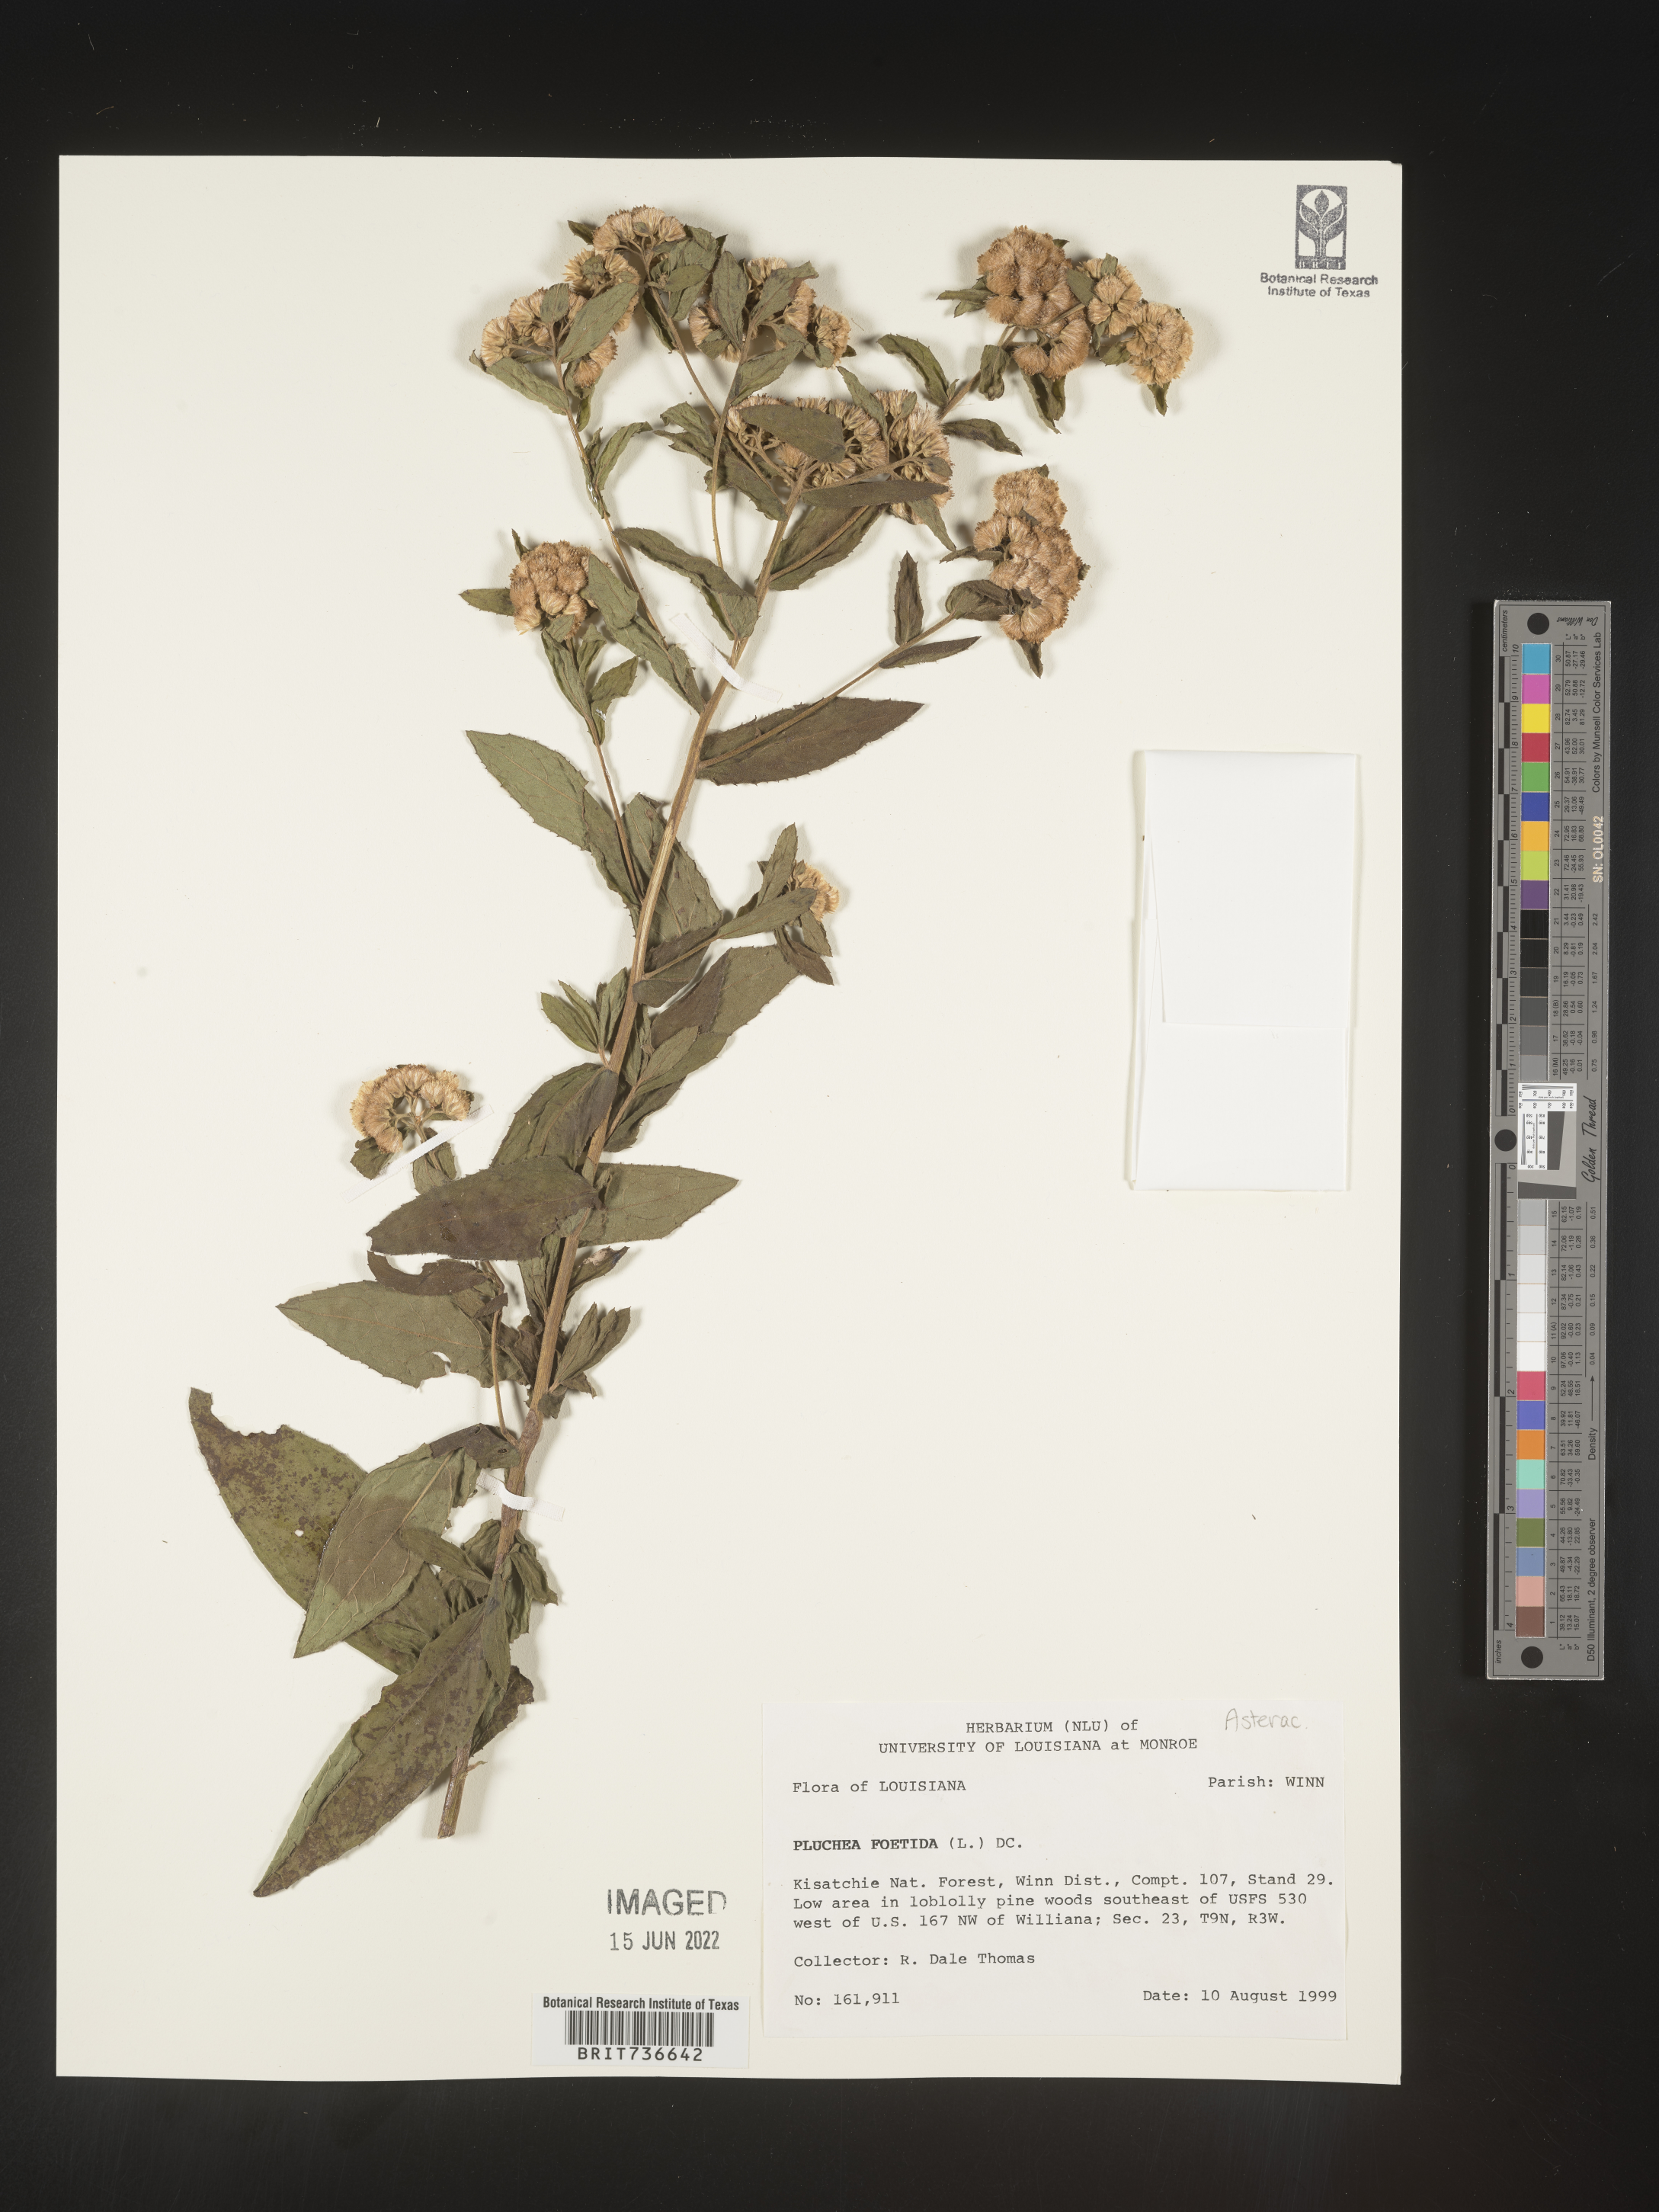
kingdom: Plantae
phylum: Tracheophyta
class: Magnoliopsida
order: Asterales
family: Asteraceae
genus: Pluchea
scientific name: Pluchea foetida
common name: Stinking camphorweed
